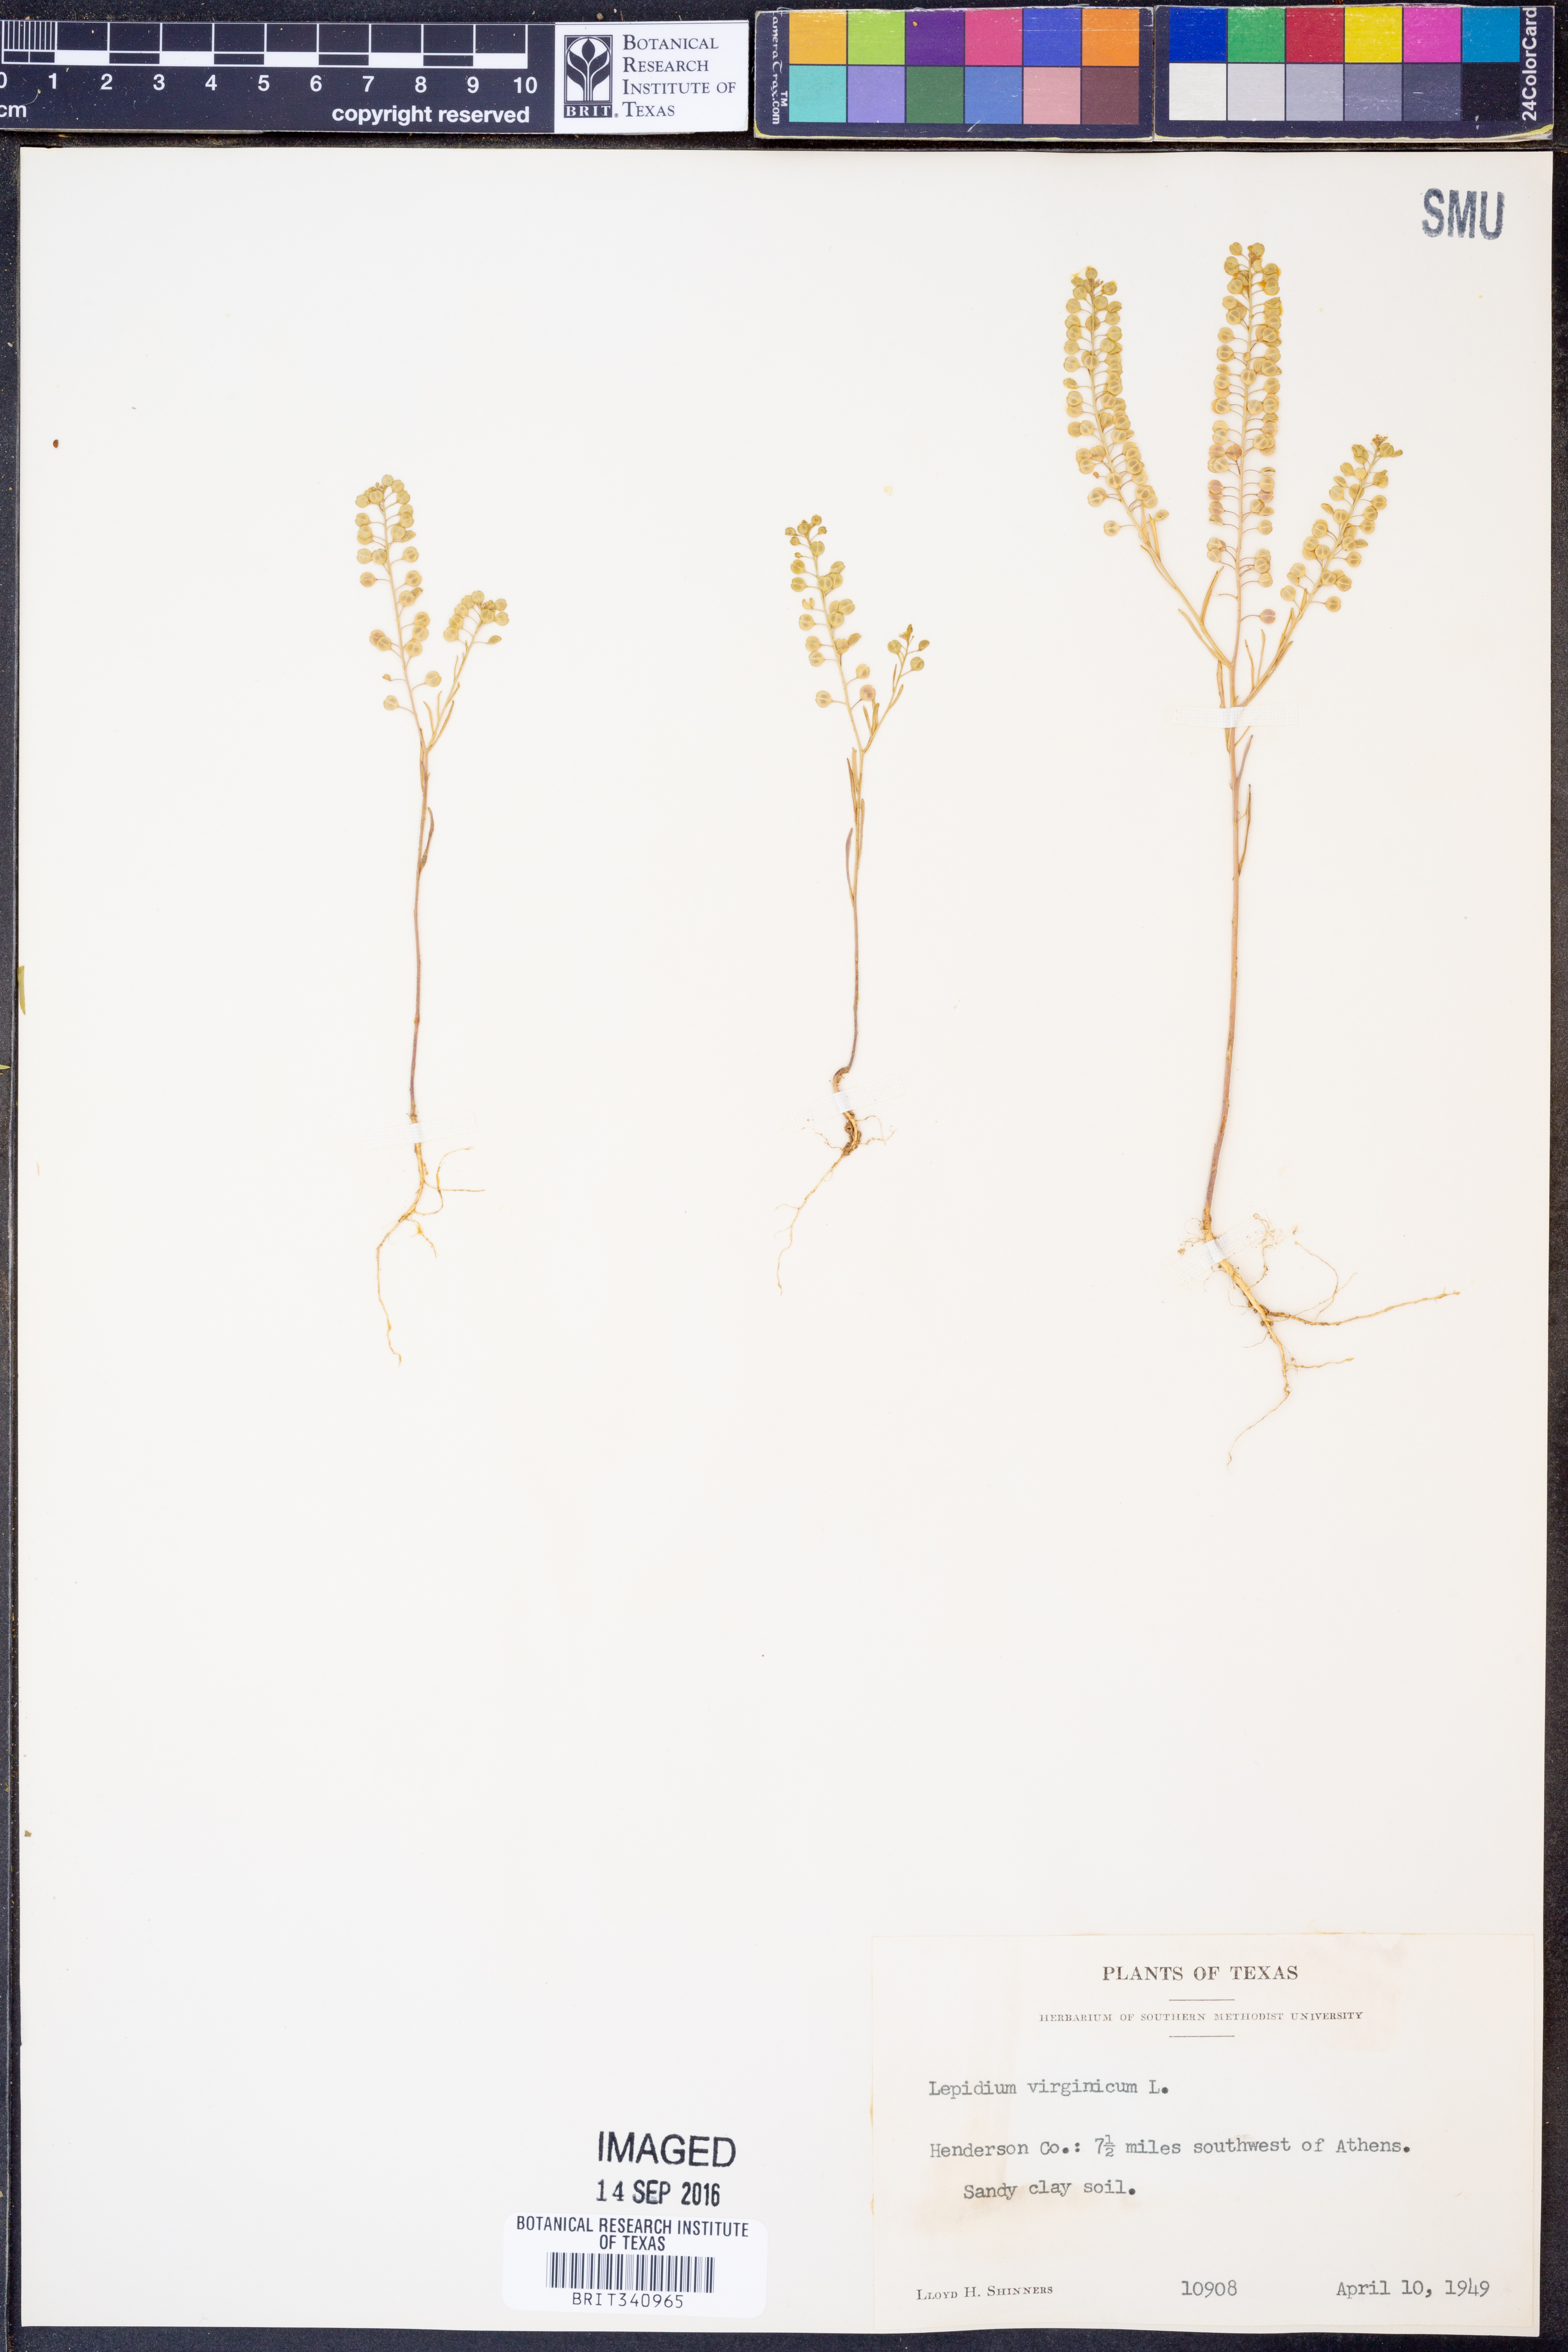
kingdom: Plantae
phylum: Tracheophyta
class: Magnoliopsida
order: Brassicales
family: Brassicaceae
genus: Lepidium
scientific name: Lepidium virginicum
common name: Least pepperwort
